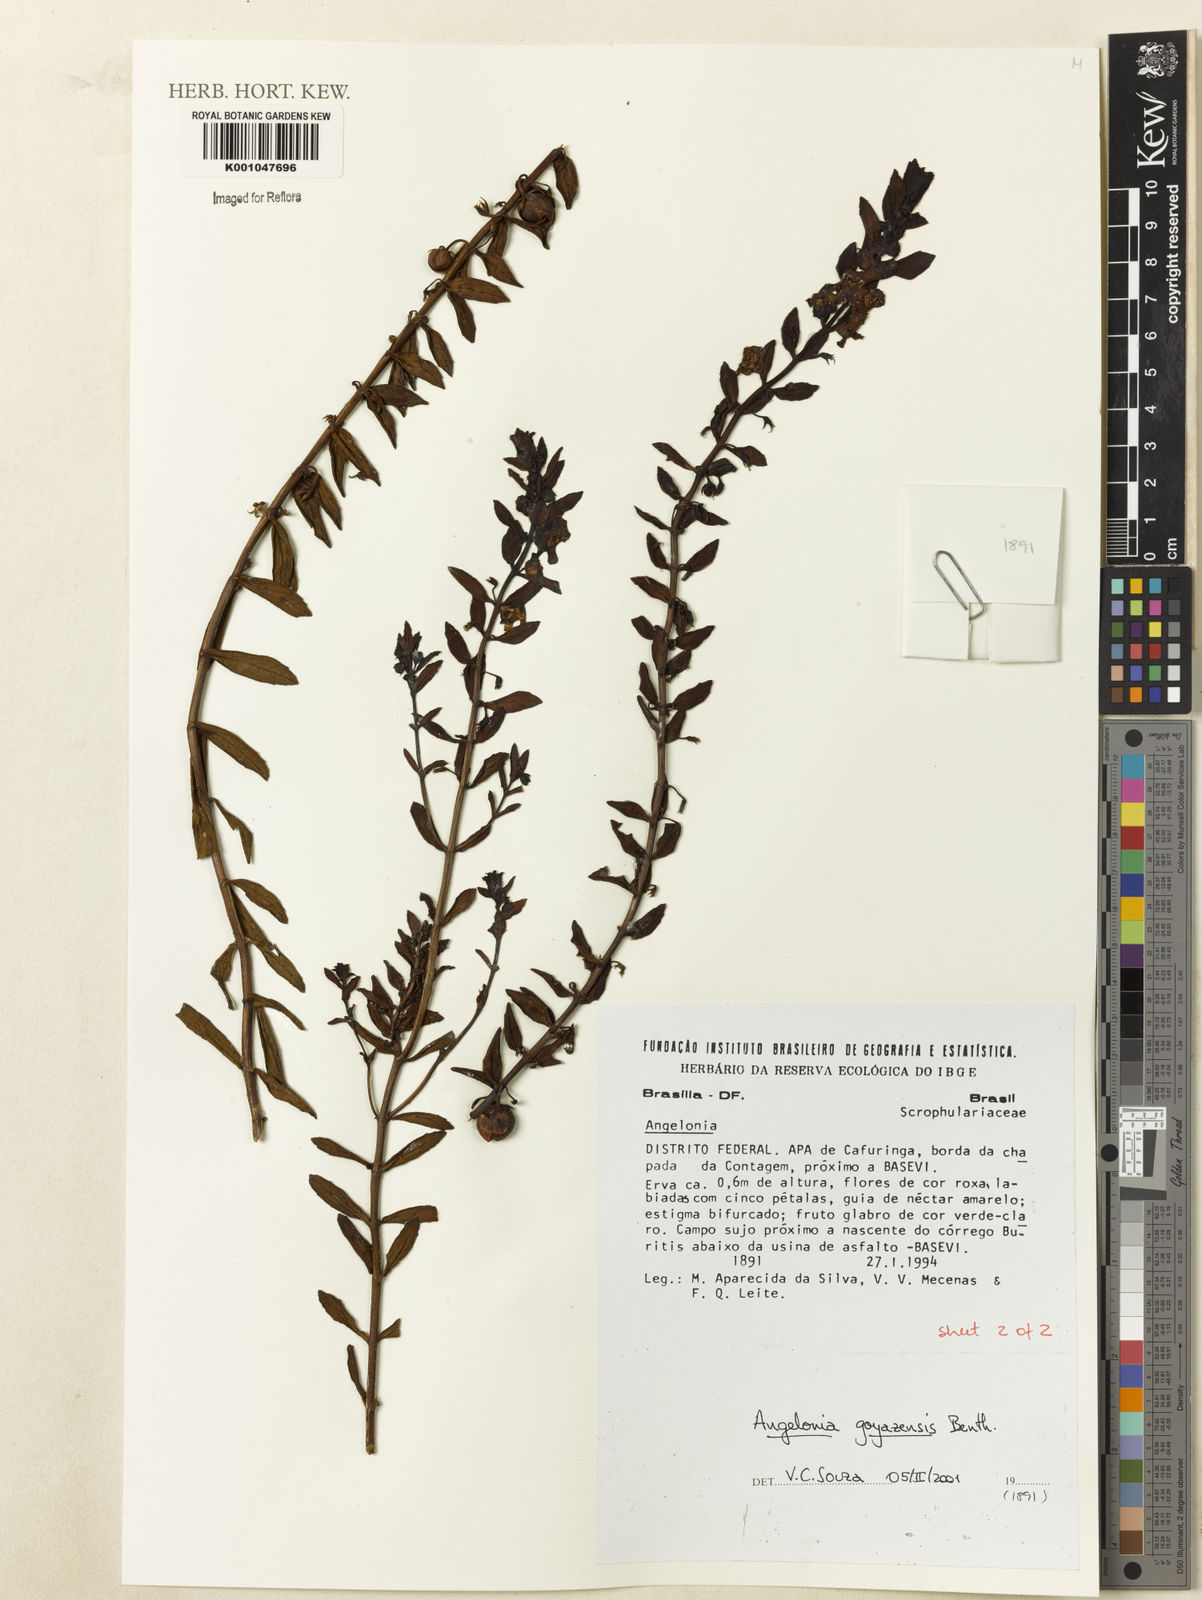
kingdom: Plantae
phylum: Tracheophyta
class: Magnoliopsida
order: Lamiales
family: Plantaginaceae
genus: Angelonia
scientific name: Angelonia goyazensis
